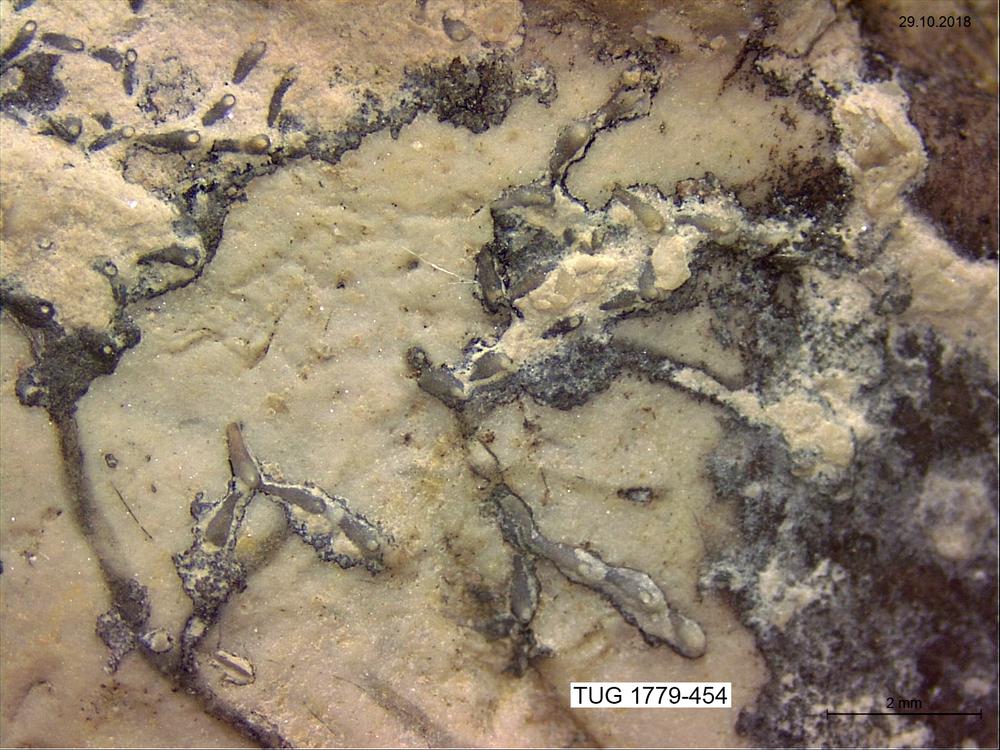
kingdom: Animalia
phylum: Bryozoa
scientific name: Bryozoa
